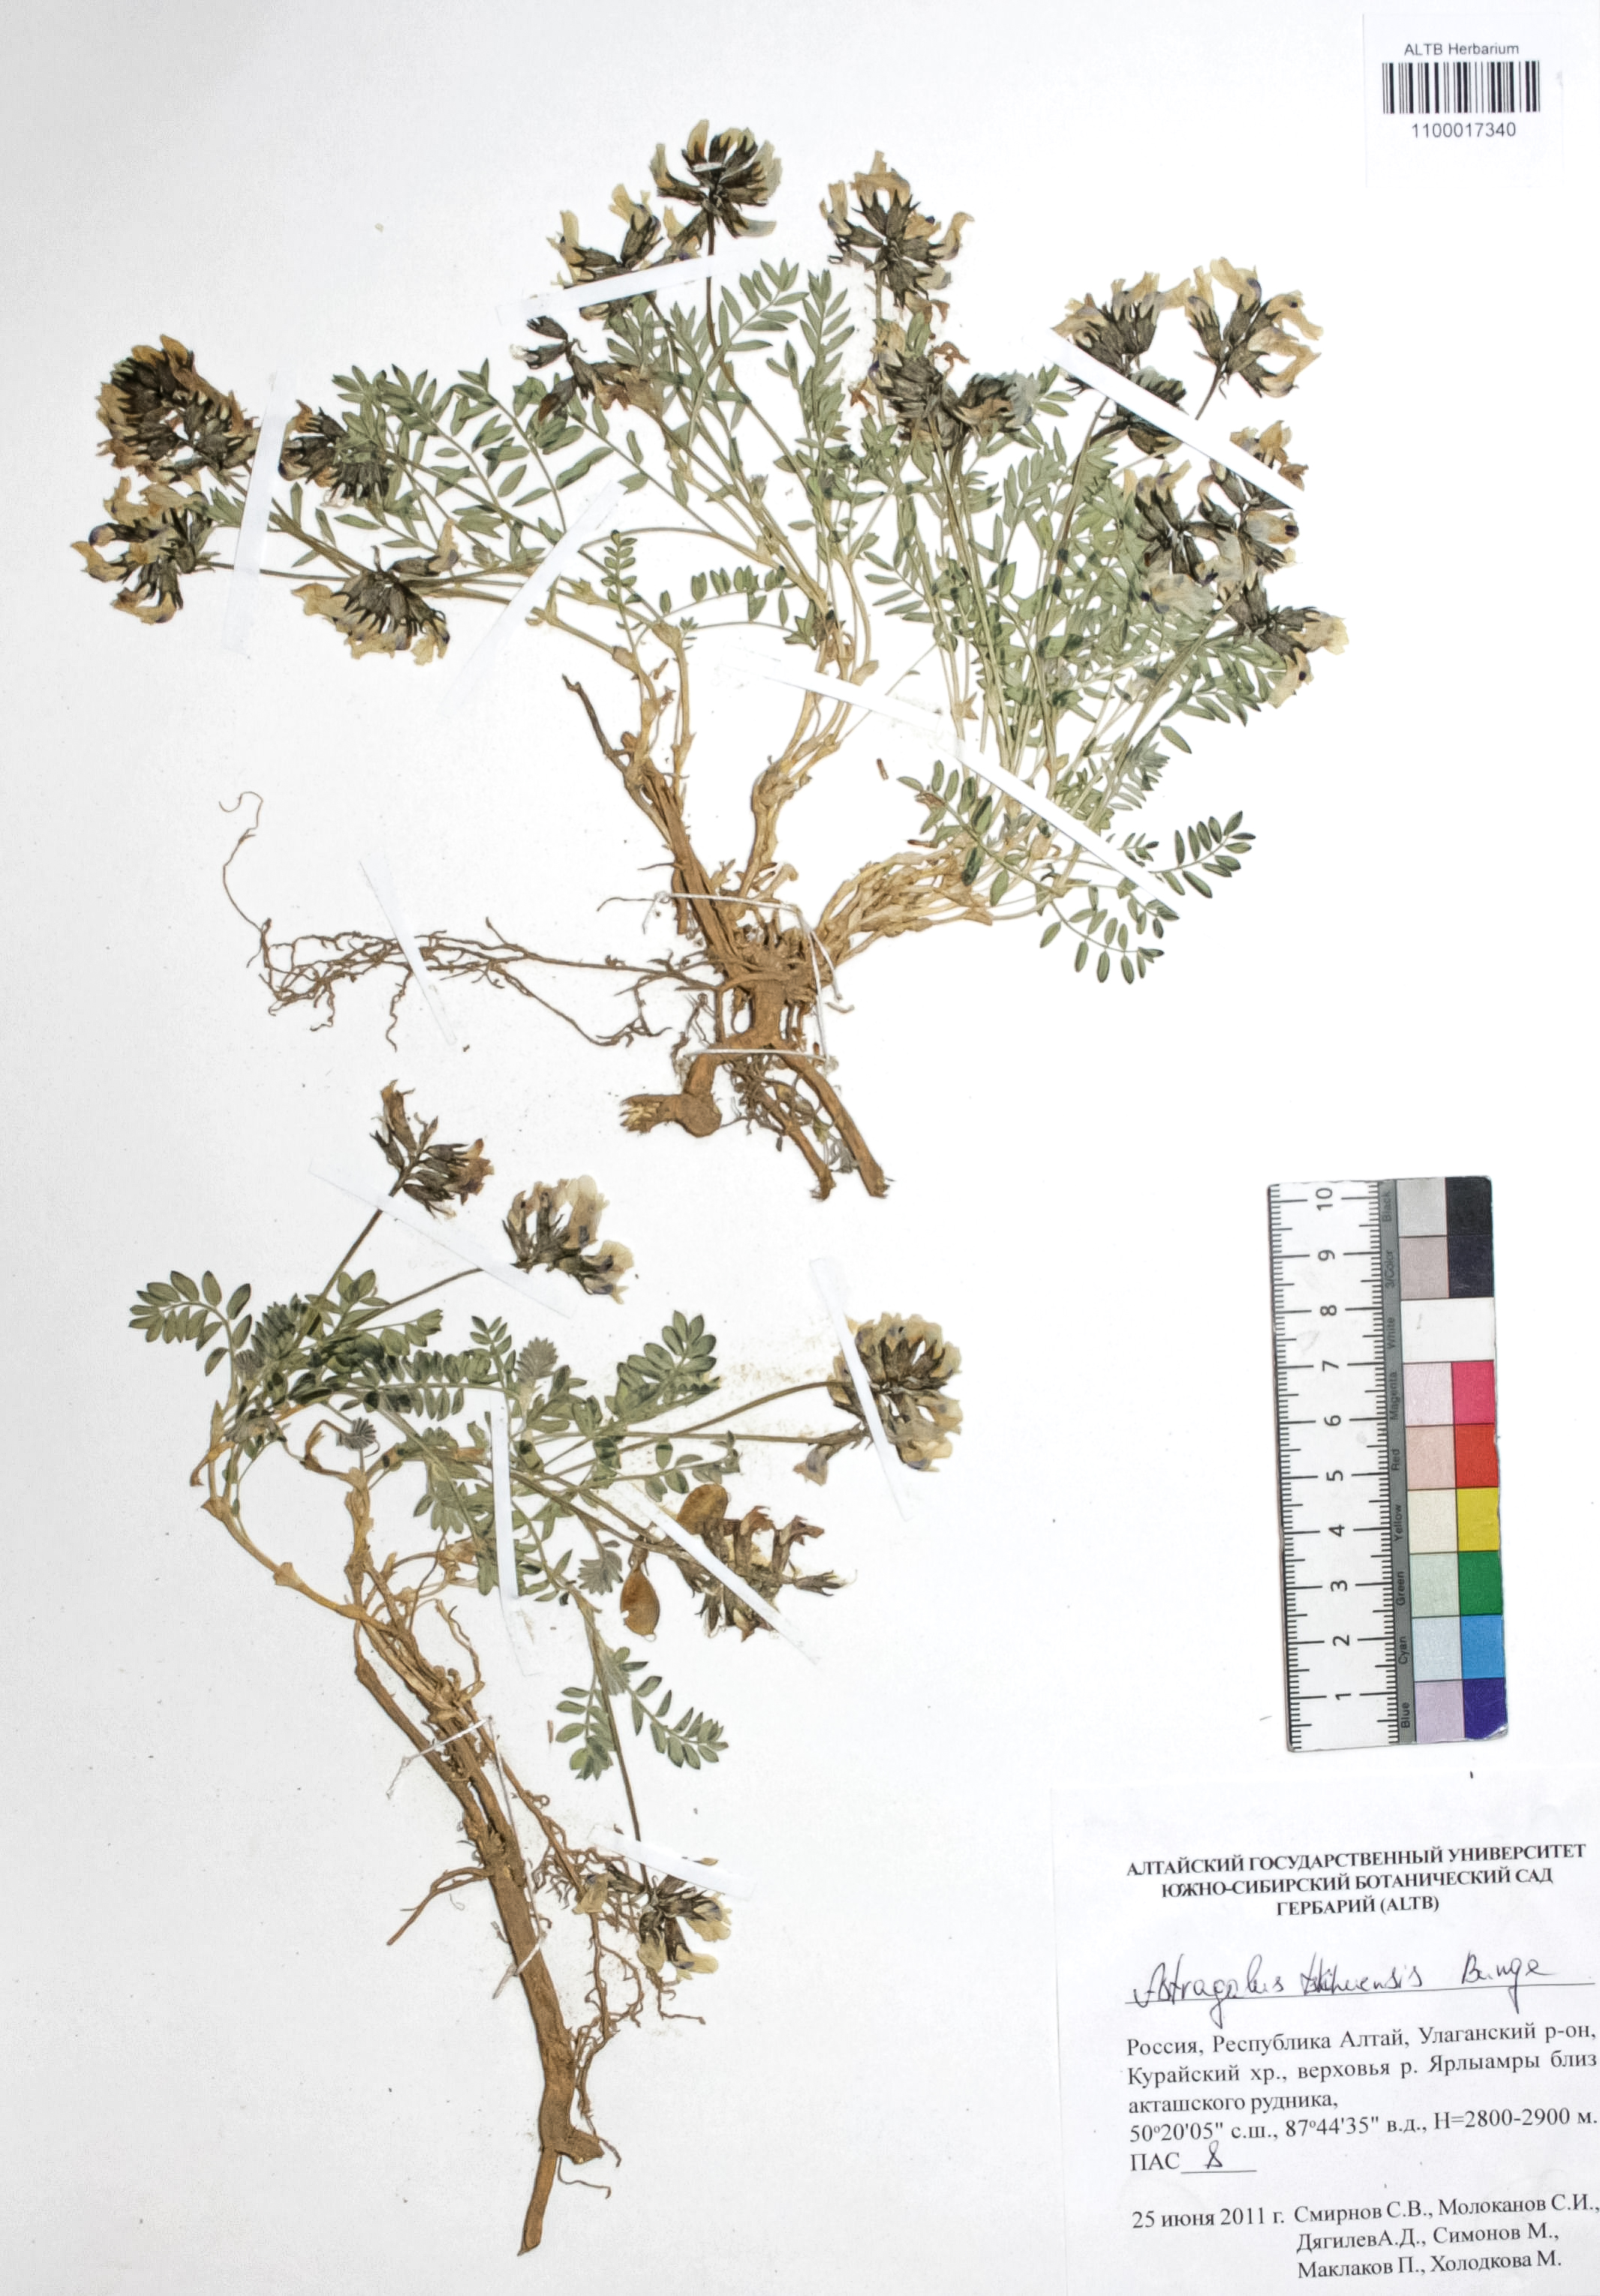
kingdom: Plantae
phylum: Tracheophyta
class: Magnoliopsida
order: Fabales
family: Fabaceae
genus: Astragalus
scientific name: Astragalus tschujensis
